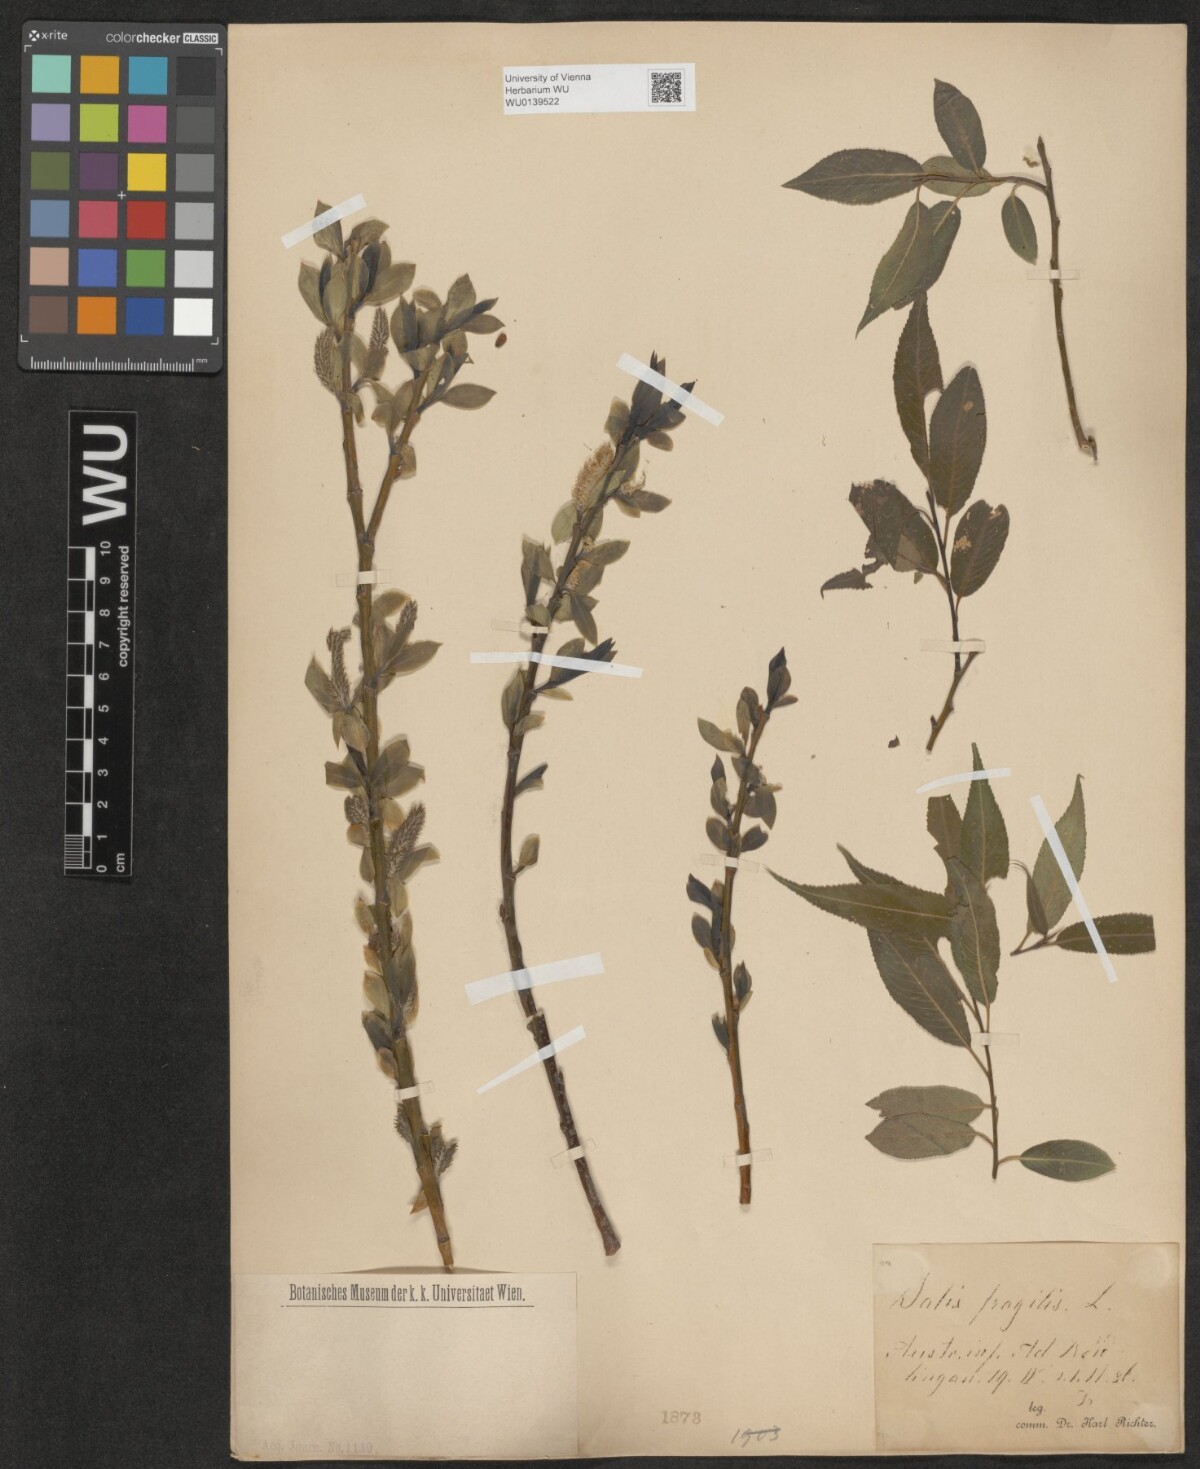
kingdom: Plantae
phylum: Tracheophyta
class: Magnoliopsida
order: Malpighiales
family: Salicaceae
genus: Salix
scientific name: Salix rubens
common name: Hybrid crack willow
